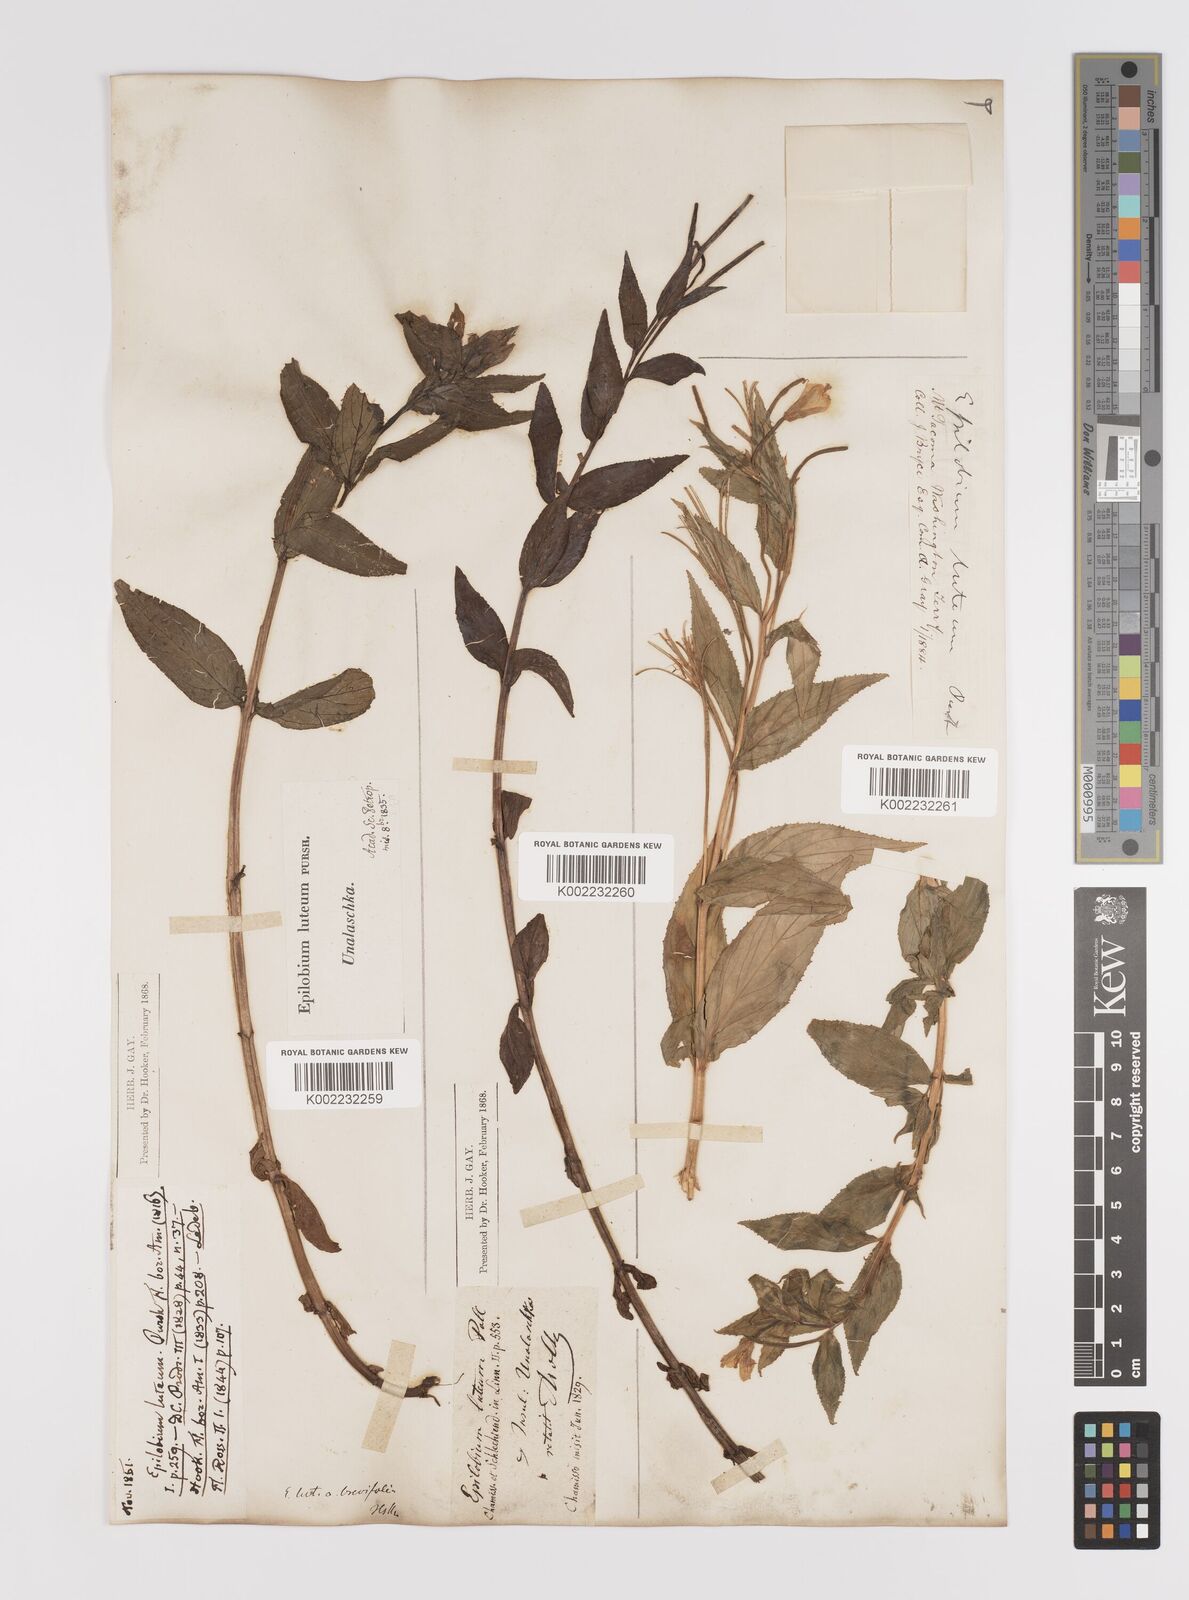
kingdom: Plantae
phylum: Tracheophyta
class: Magnoliopsida
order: Myrtales
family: Onagraceae
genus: Epilobium
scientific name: Epilobium luteum
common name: Yellow willowherb
